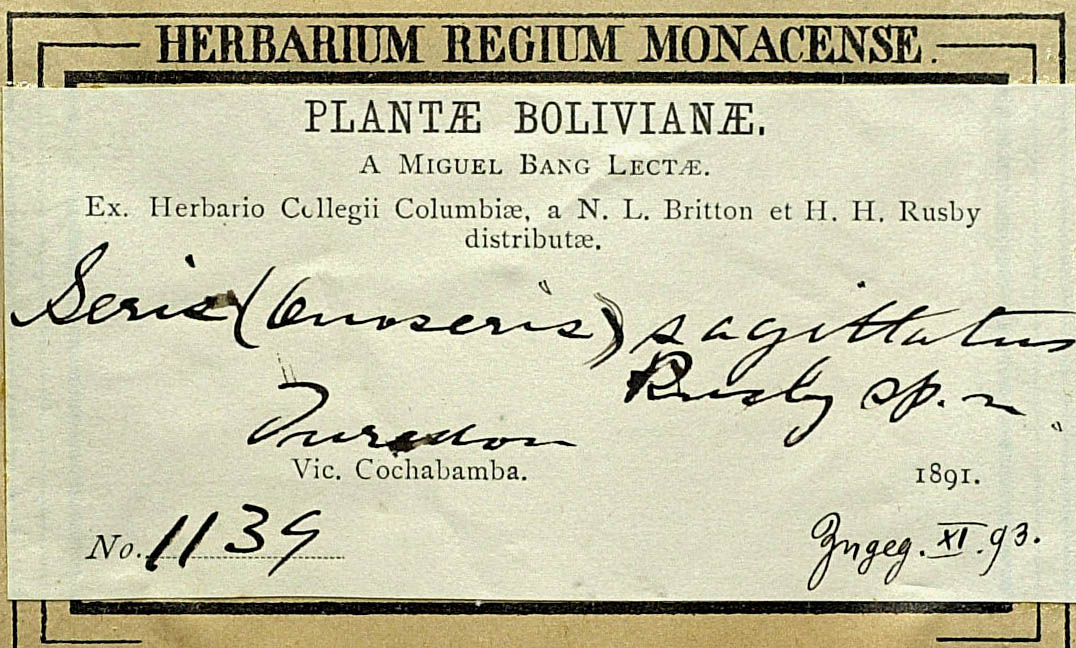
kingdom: Plantae
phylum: Tracheophyta
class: Magnoliopsida
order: Asterales
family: Asteraceae
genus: Onoseris
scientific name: Onoseris sagittata
